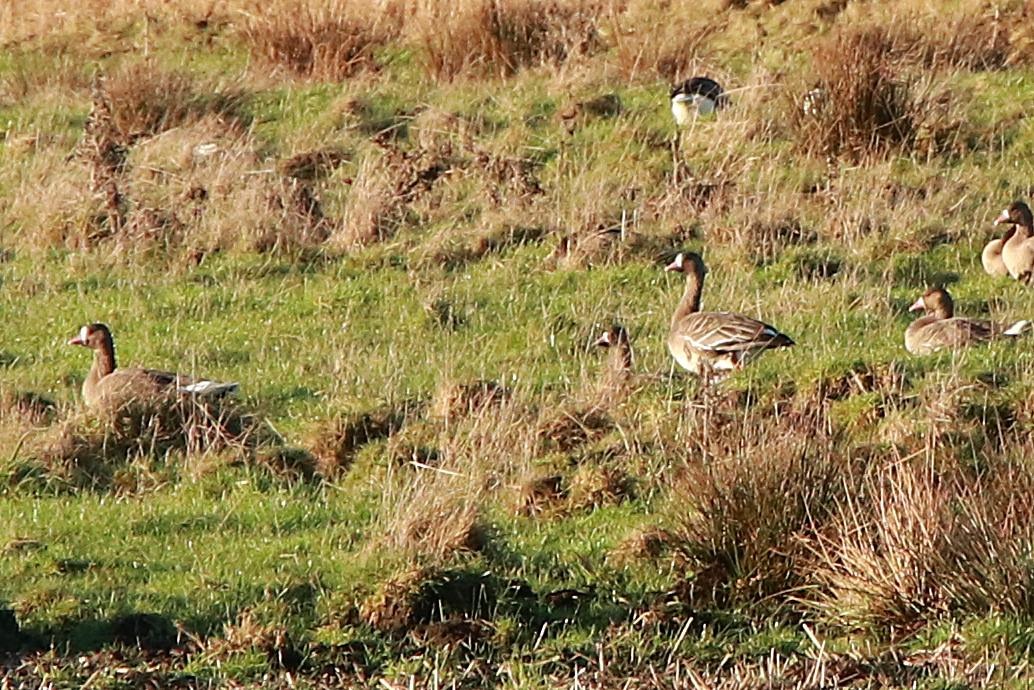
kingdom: Animalia
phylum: Chordata
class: Aves
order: Anseriformes
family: Anatidae
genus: Anser
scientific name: Anser albifrons
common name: Blisgås
